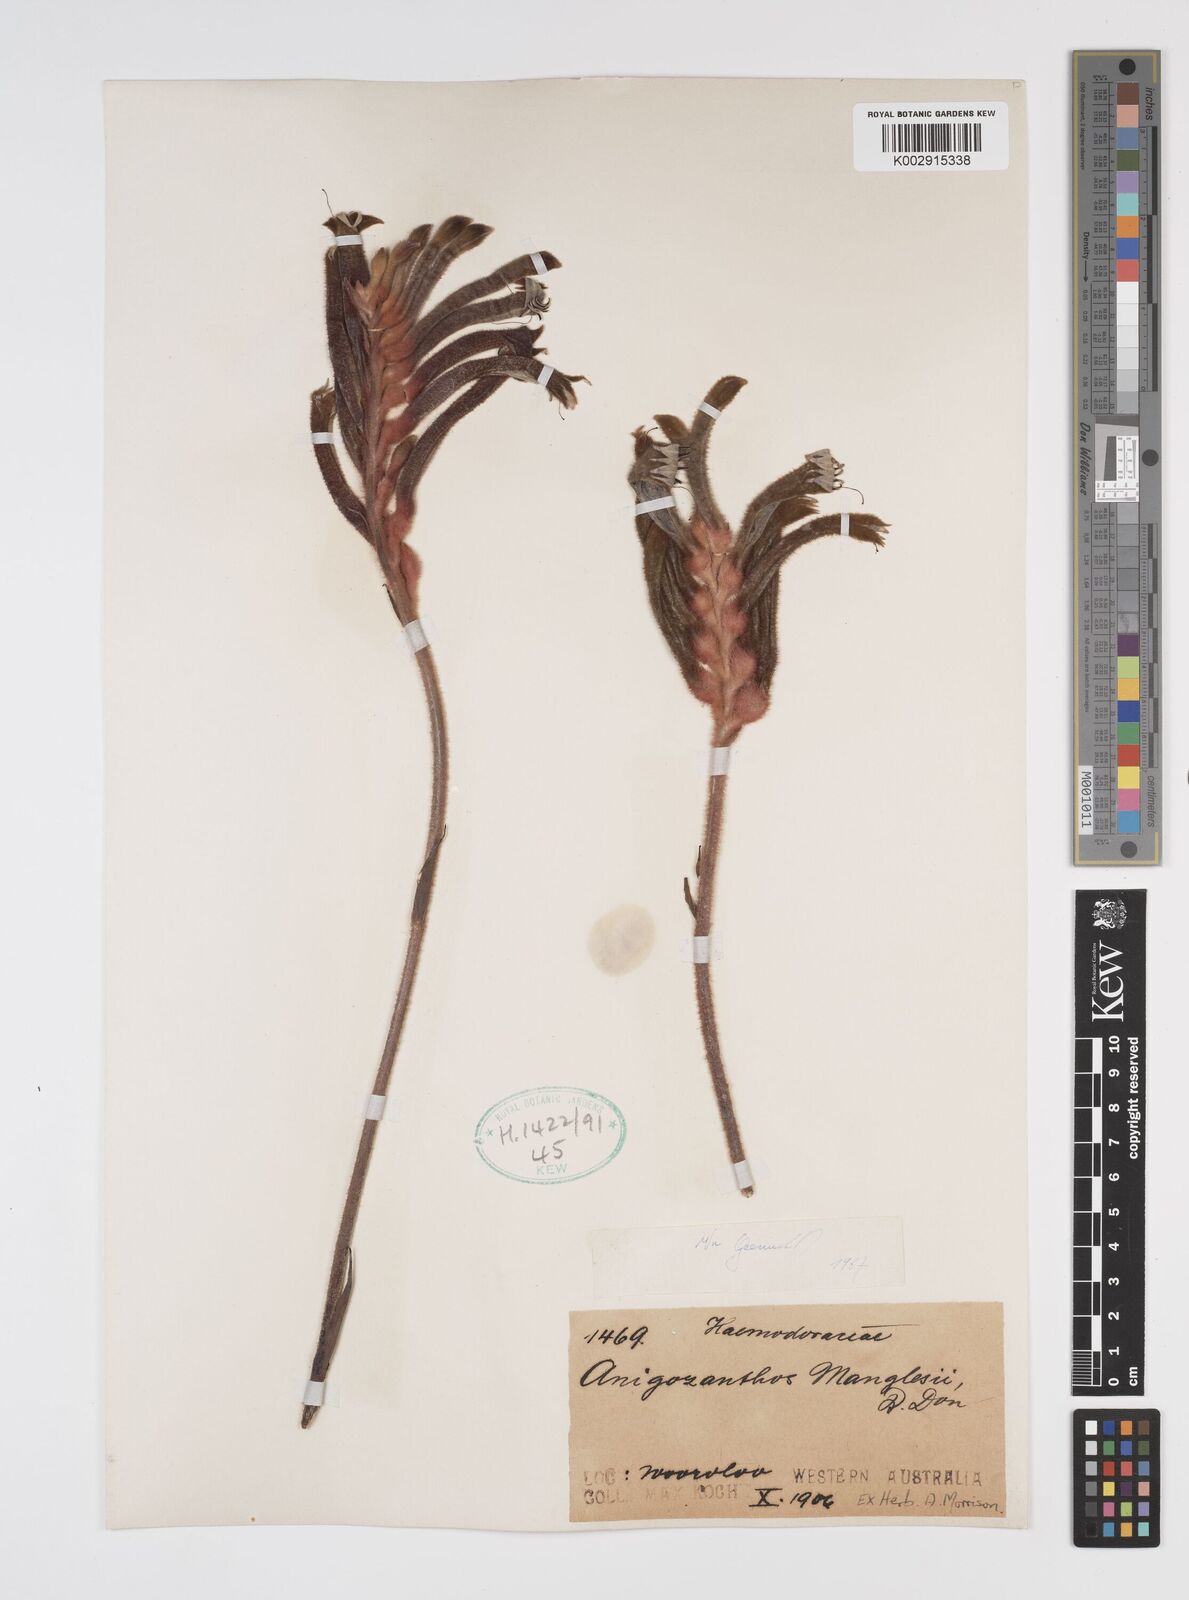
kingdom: Plantae
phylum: Tracheophyta
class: Liliopsida
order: Commelinales
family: Haemodoraceae
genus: Anigozanthos
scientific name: Anigozanthos manglesii
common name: Mangles's kangaroo-paw
